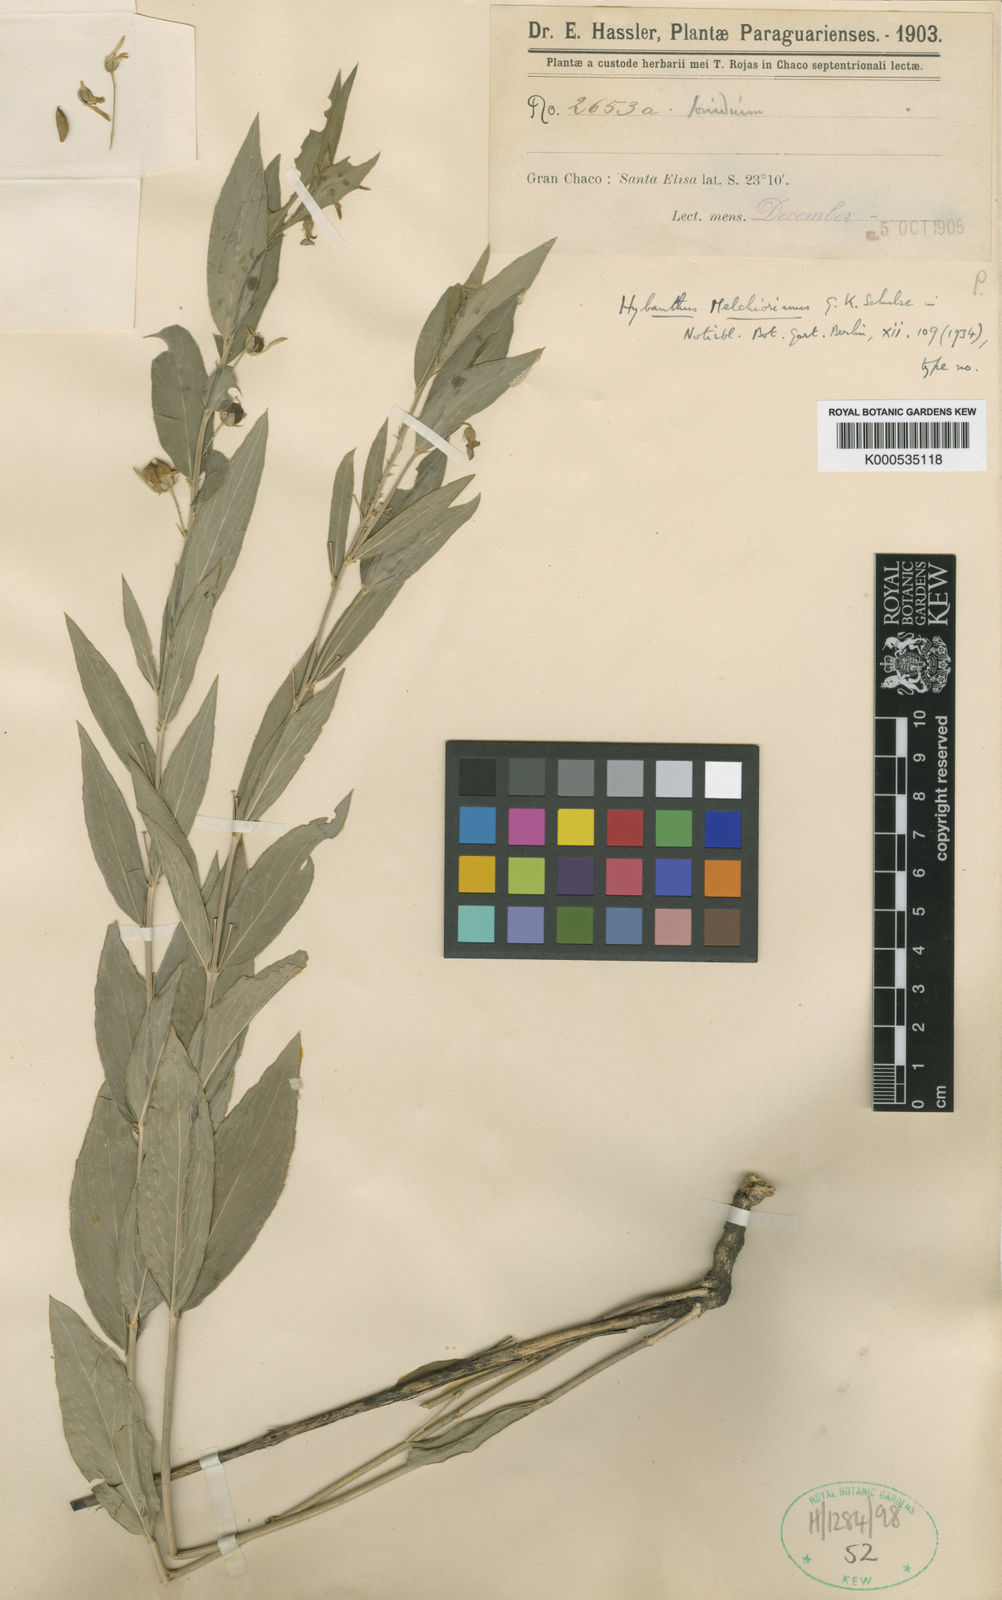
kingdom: Plantae
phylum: Tracheophyta
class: Magnoliopsida
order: Malpighiales
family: Violaceae
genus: Hybanthus
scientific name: Hybanthus melchiorianus
